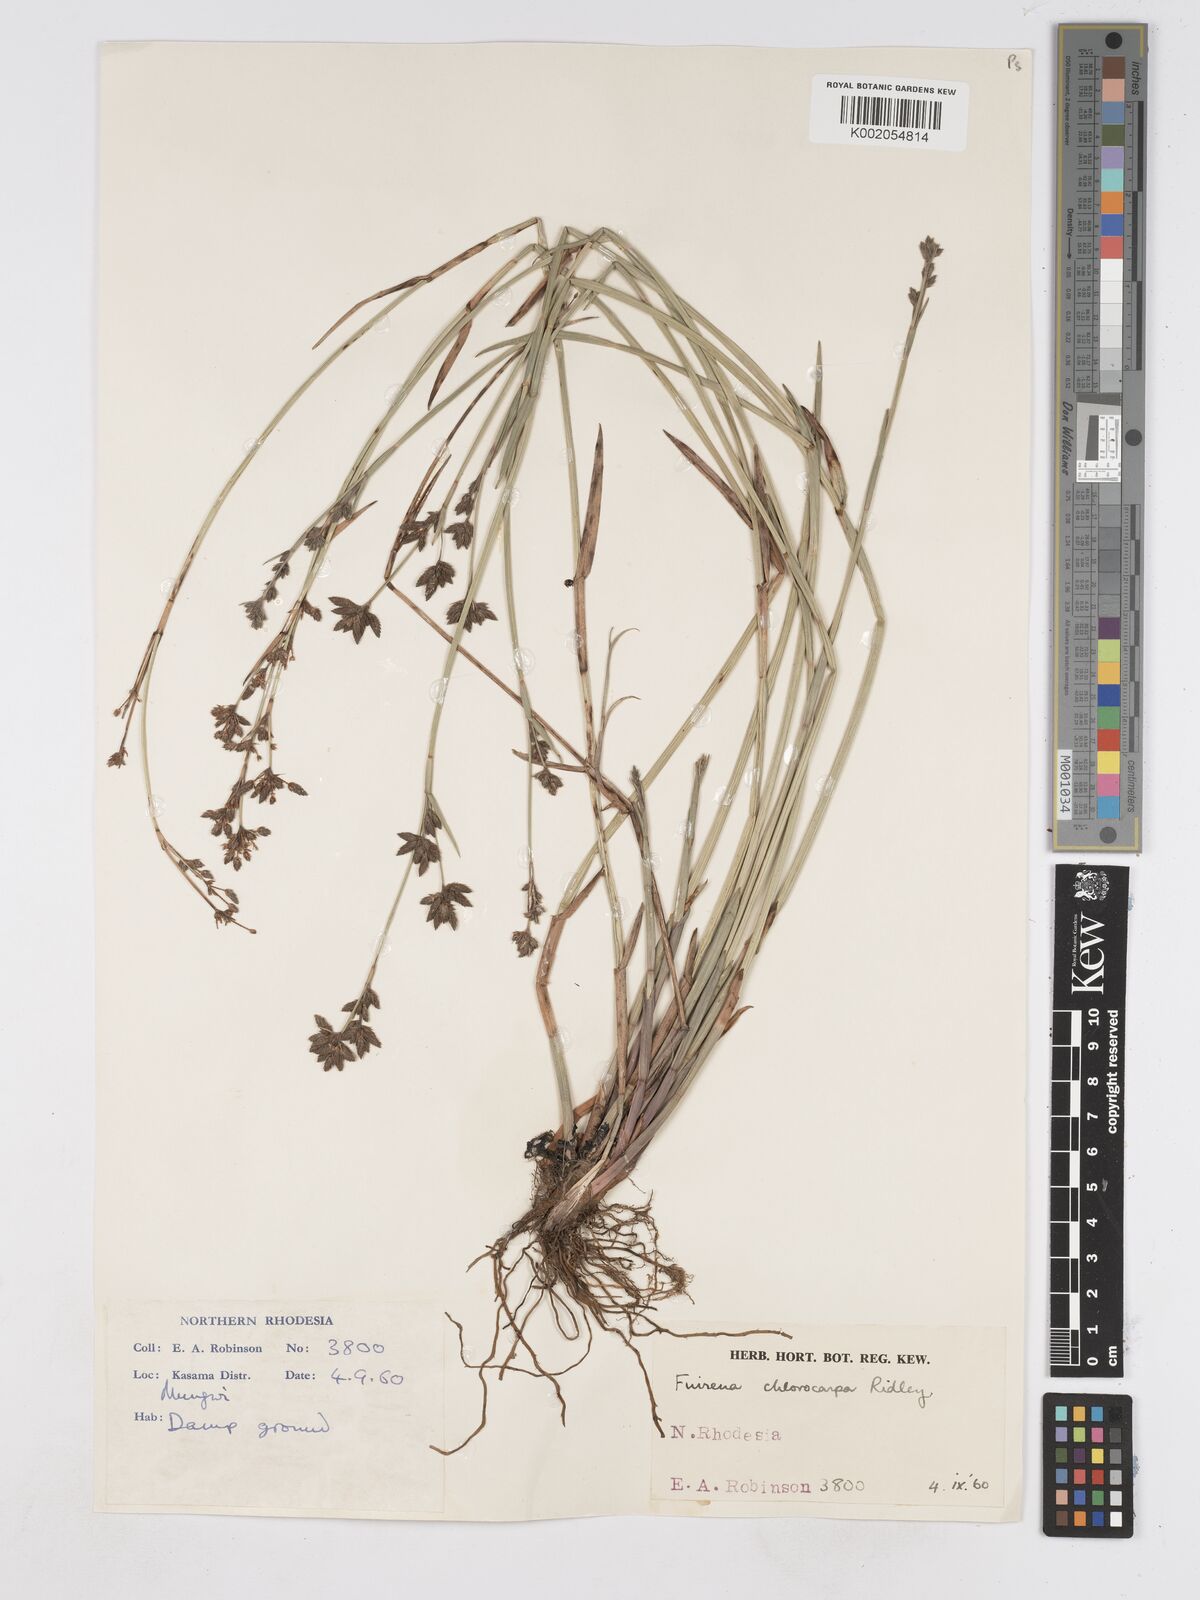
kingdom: Plantae
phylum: Tracheophyta
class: Liliopsida
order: Poales
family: Cyperaceae
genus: Fuirena
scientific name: Fuirena stricta
